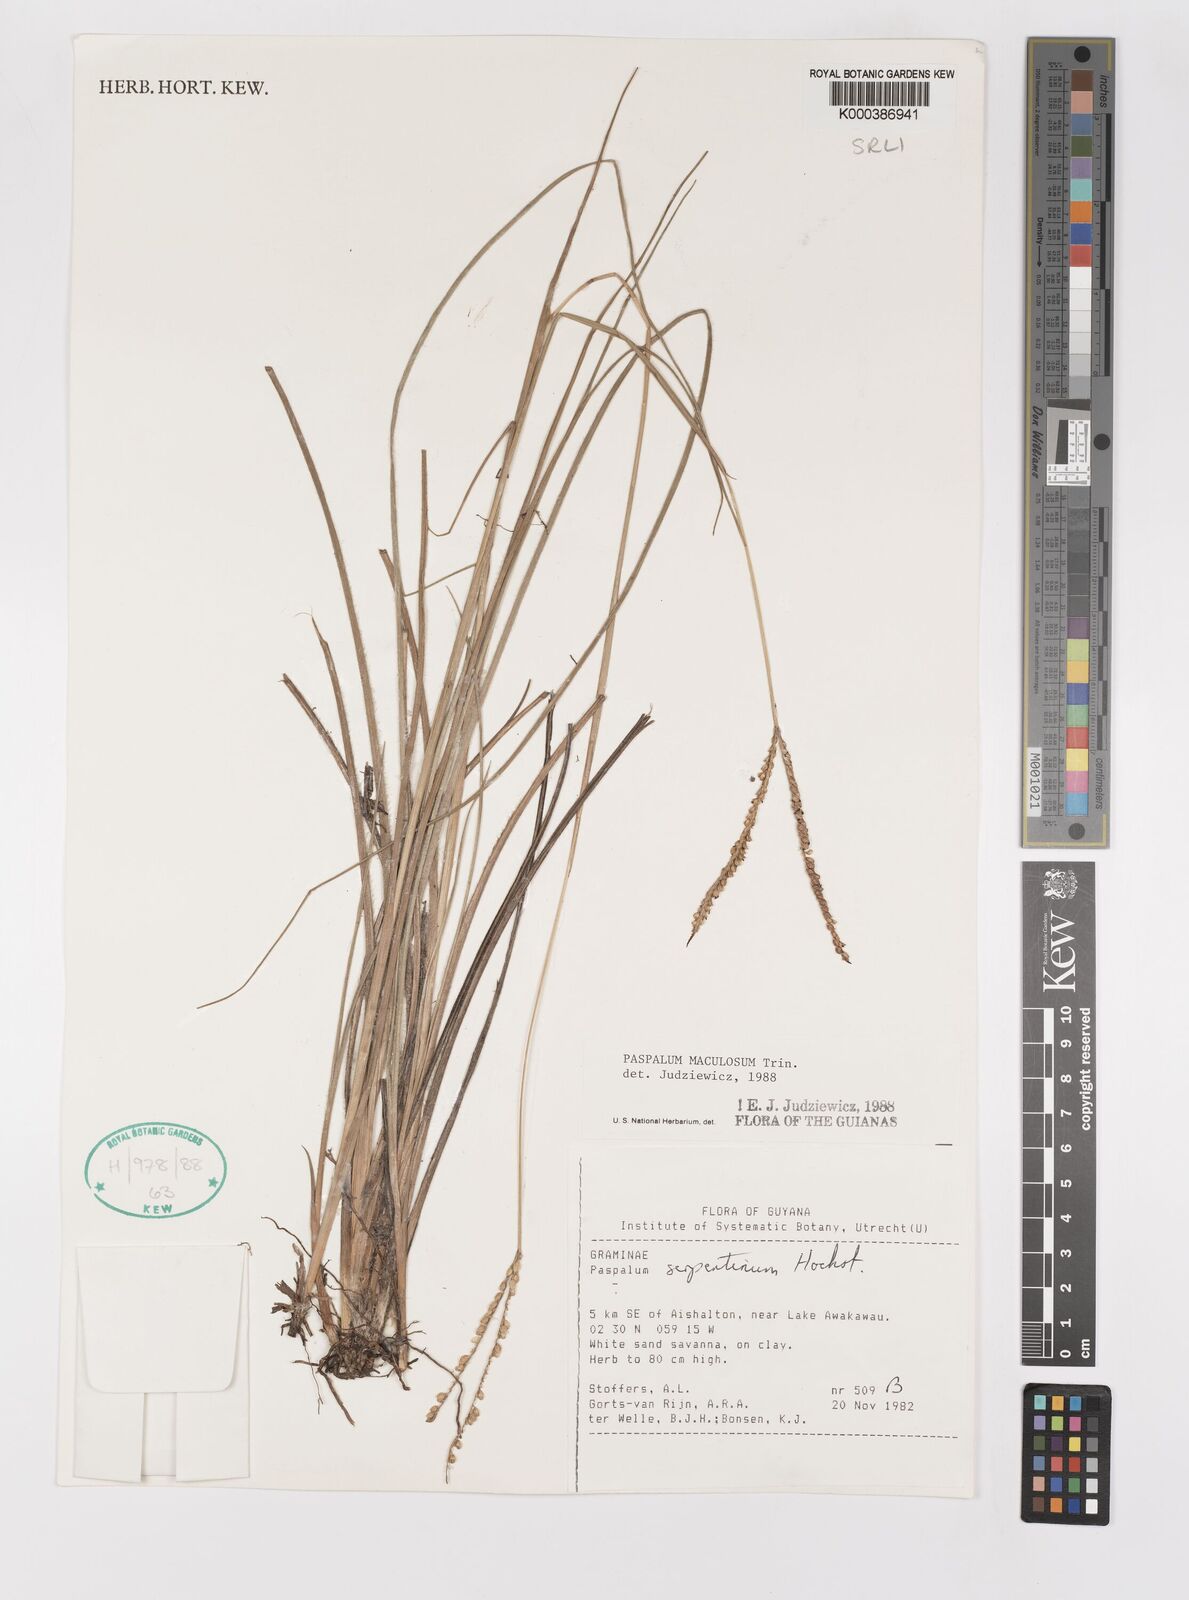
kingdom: Plantae
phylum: Tracheophyta
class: Liliopsida
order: Poales
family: Poaceae
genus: Paspalum
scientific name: Paspalum maculosum
